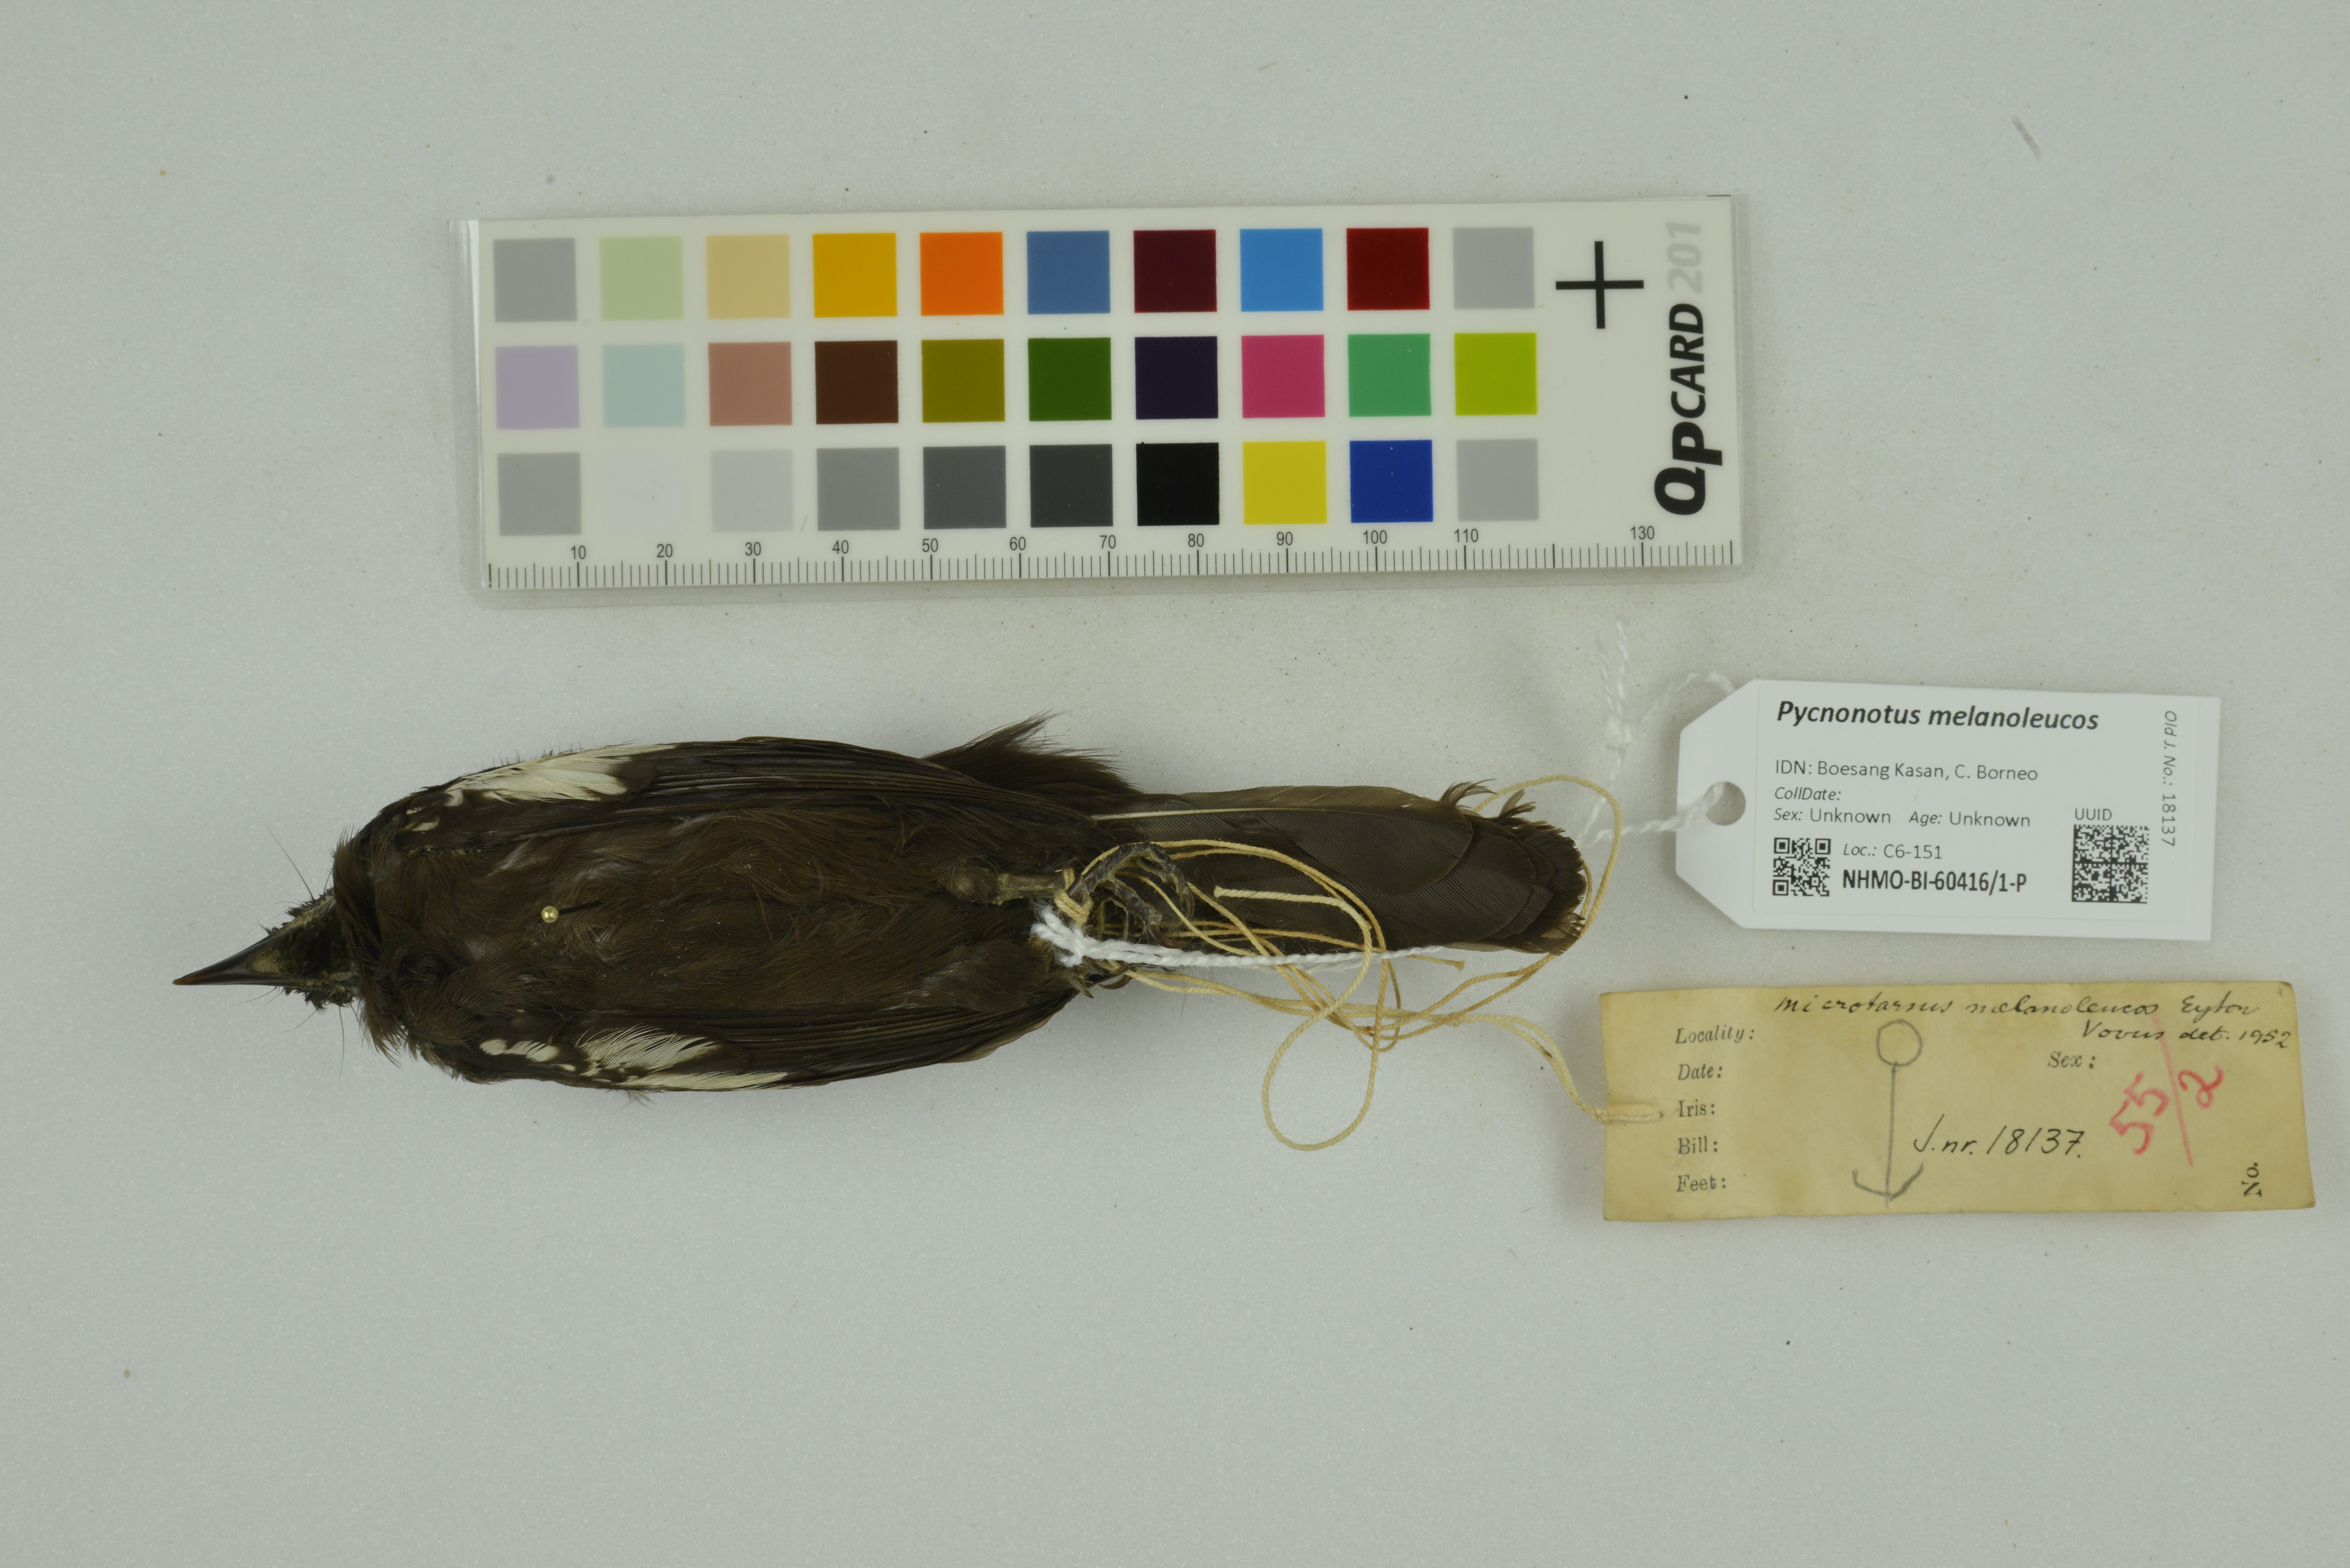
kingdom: Animalia
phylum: Chordata
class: Aves
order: Passeriformes
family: Pycnonotidae
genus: Pycnonotus
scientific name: Pycnonotus melanoleucos
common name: Black-and-white bulbul
